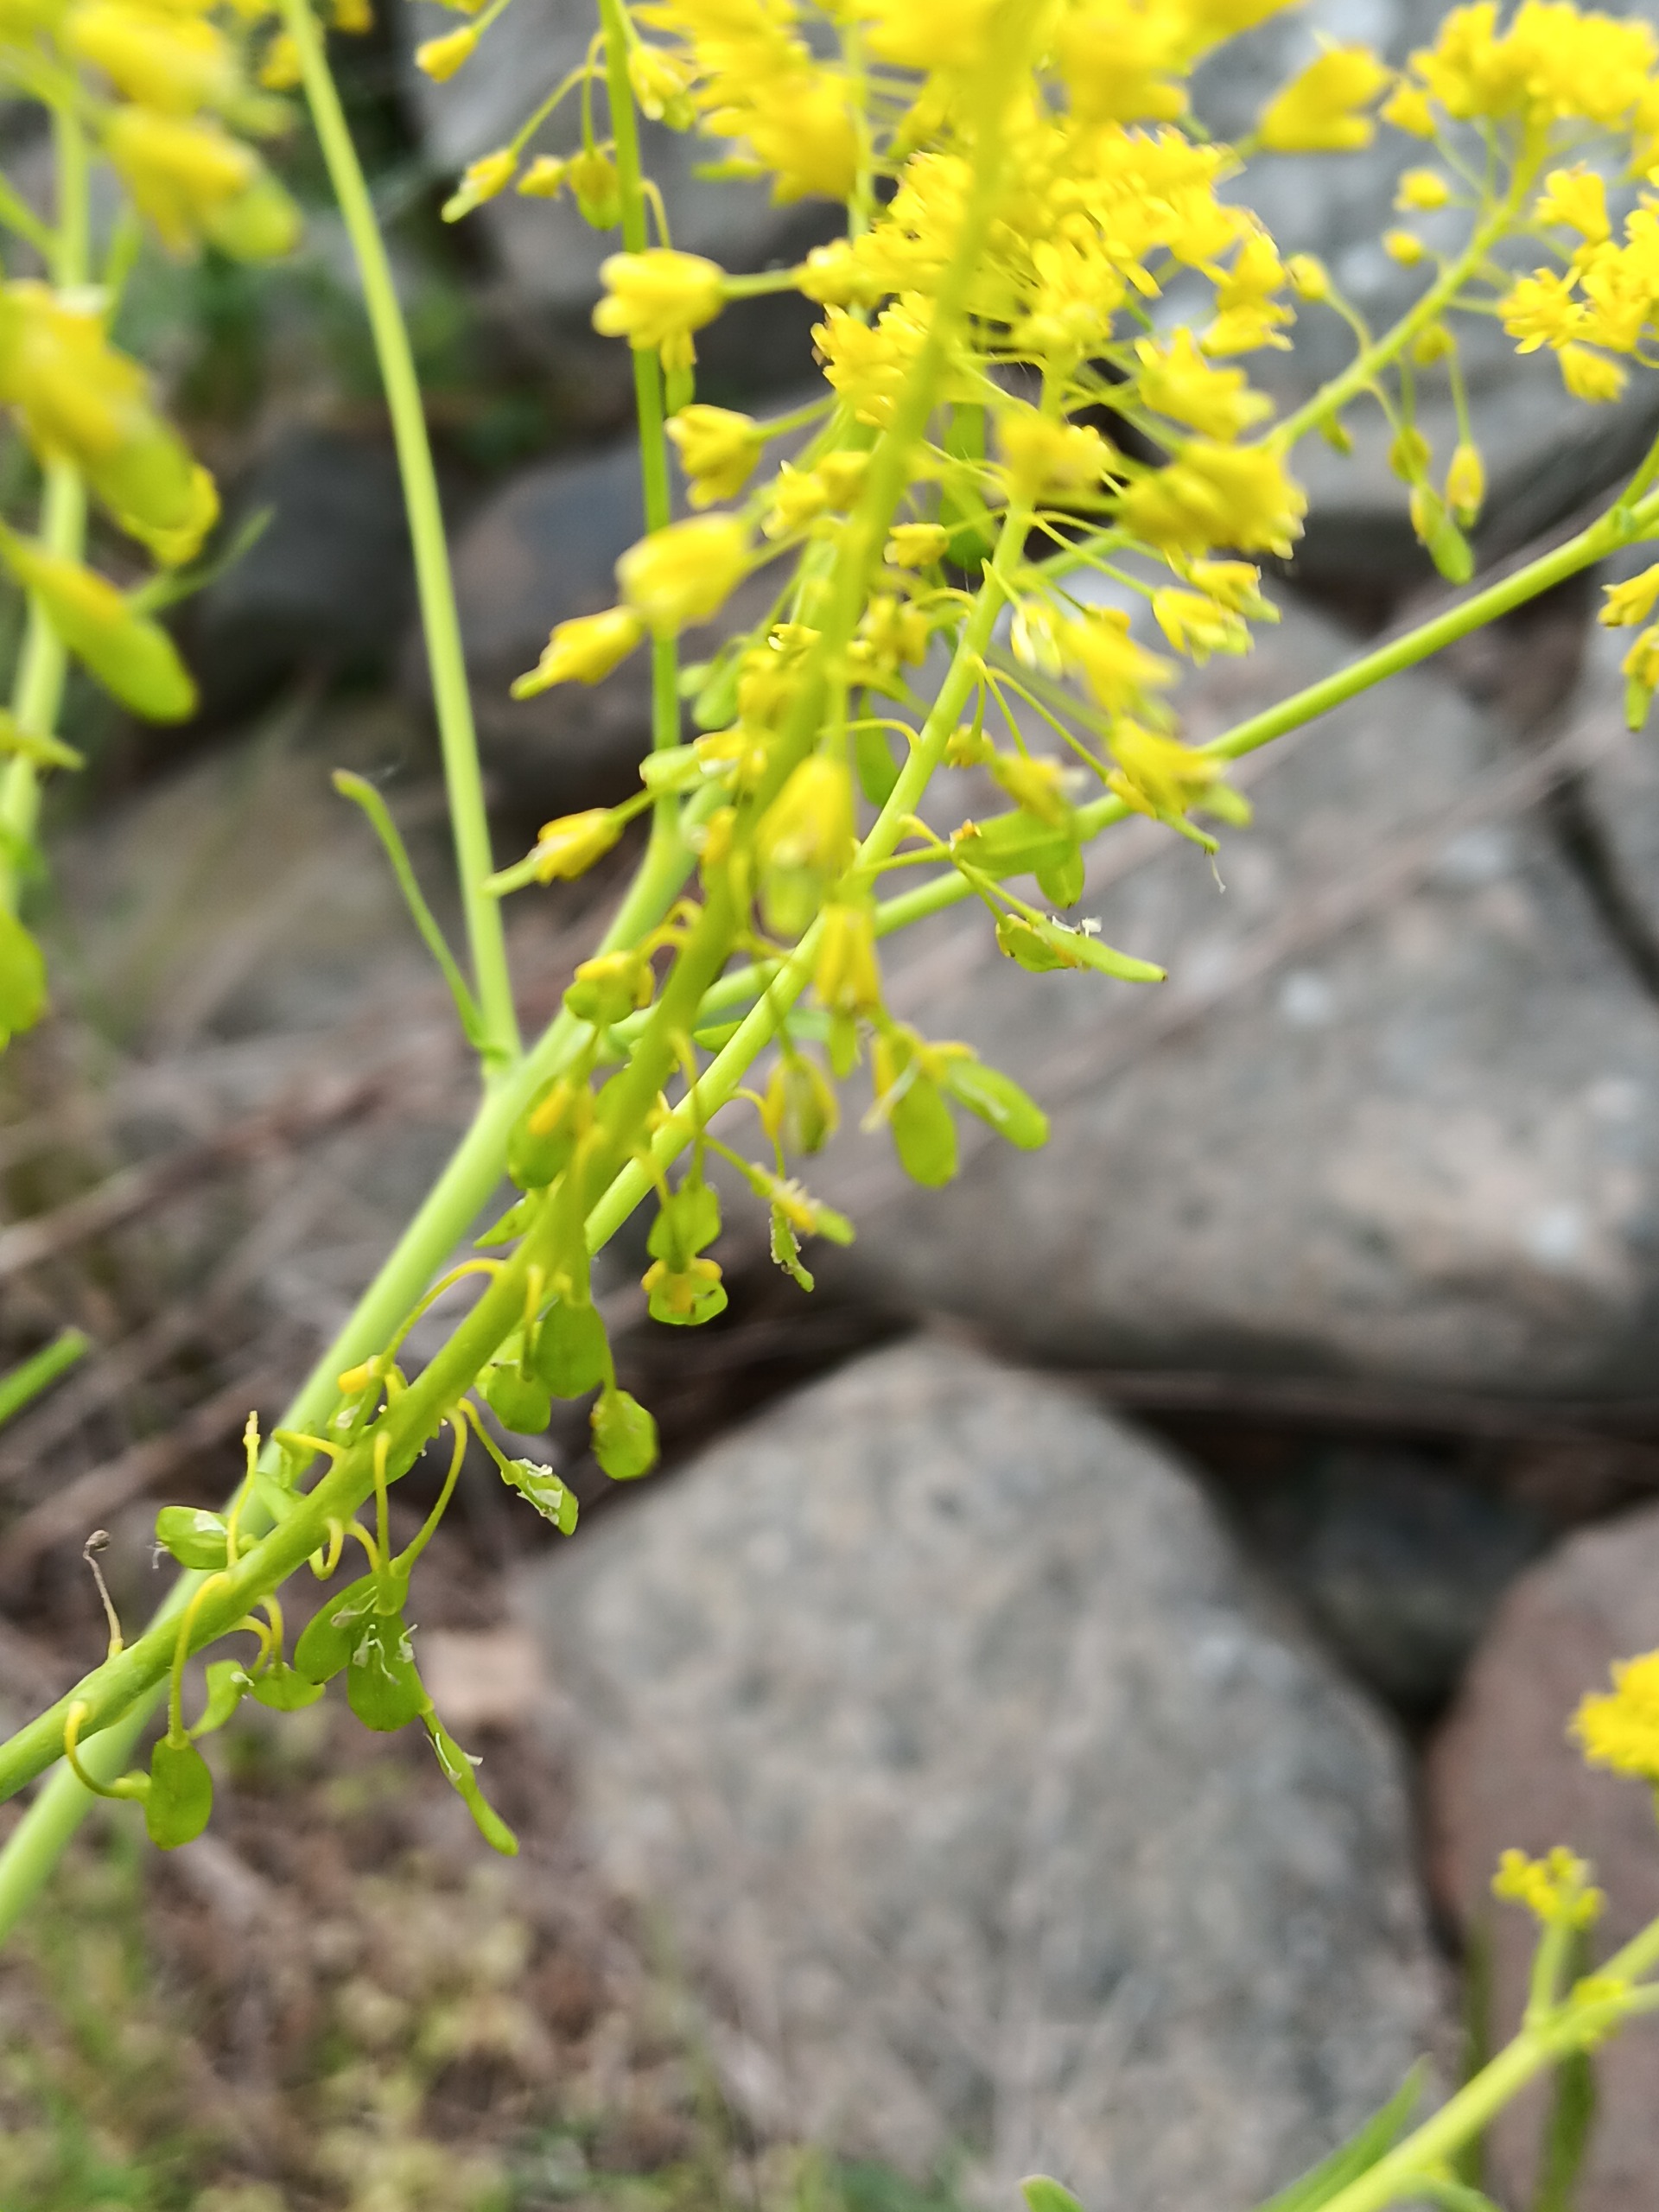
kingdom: Plantae
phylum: Tracheophyta
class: Magnoliopsida
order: Brassicales
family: Brassicaceae
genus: Isatis
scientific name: Isatis tinctoria
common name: Farve-vajd
